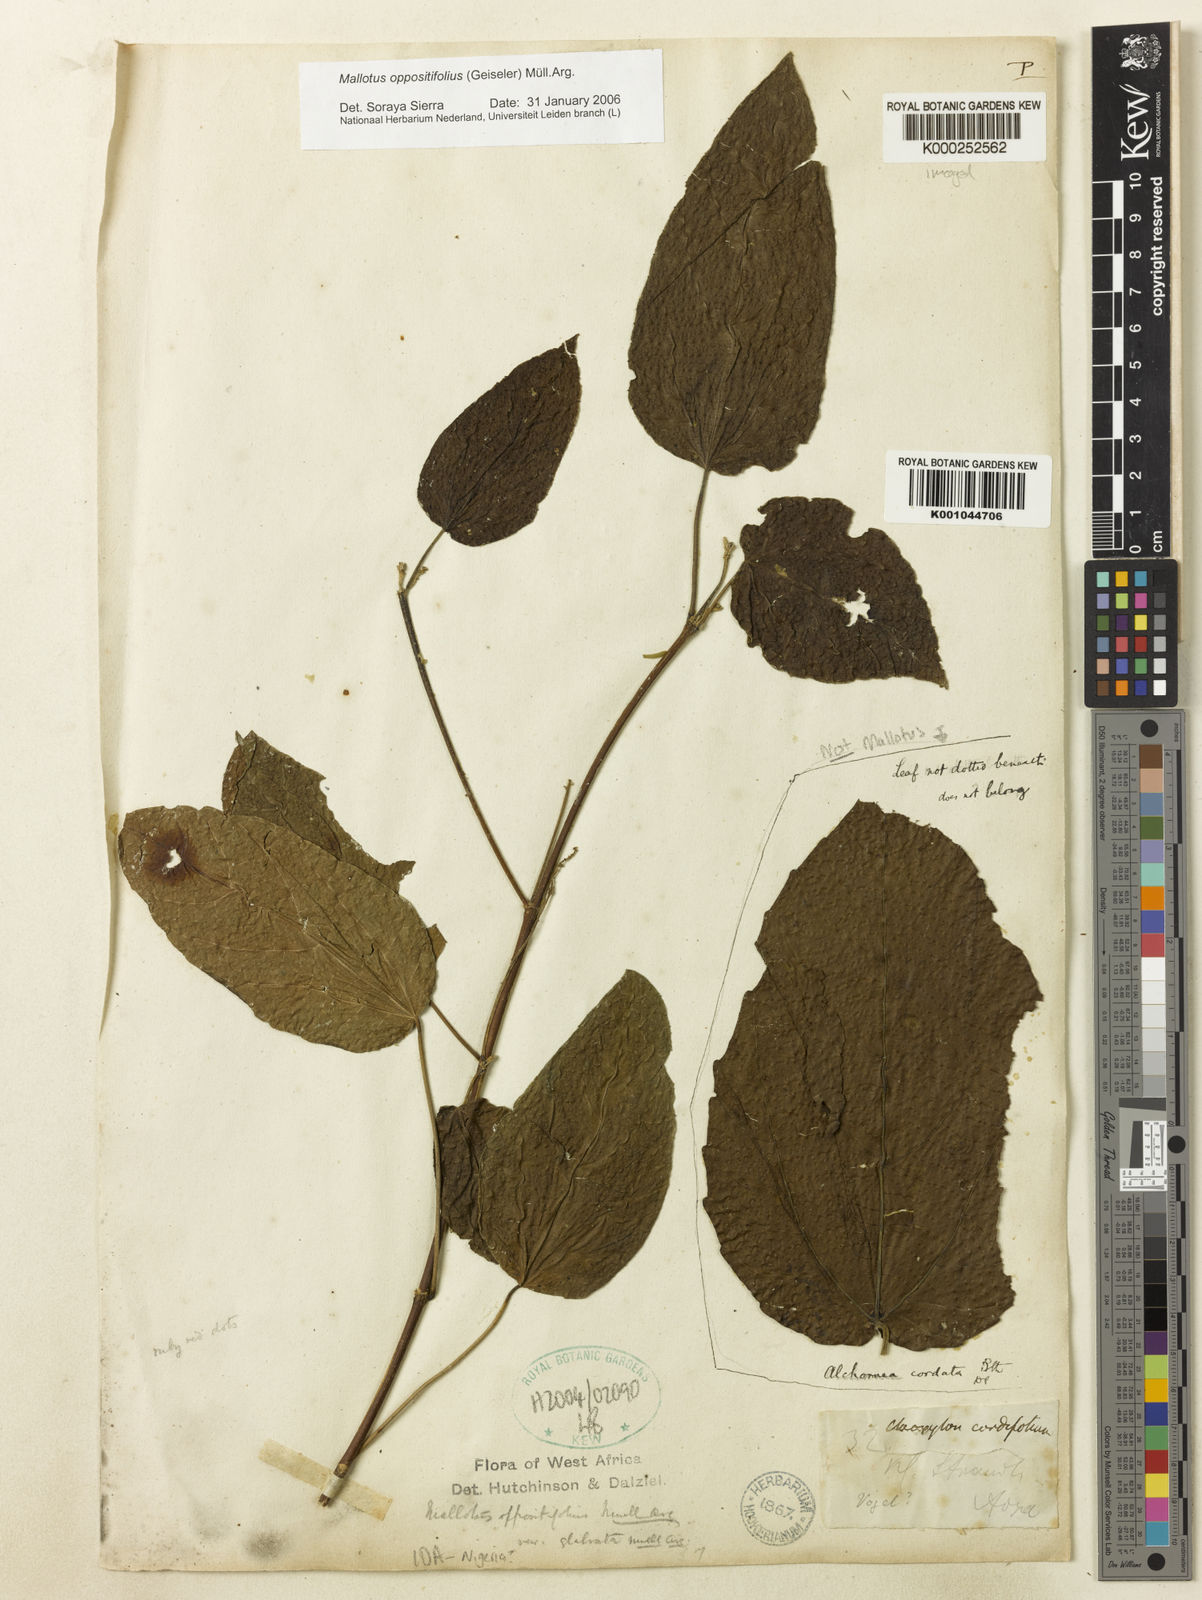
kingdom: Plantae
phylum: Tracheophyta
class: Magnoliopsida
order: Malpighiales
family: Euphorbiaceae
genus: Mallotus
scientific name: Mallotus
